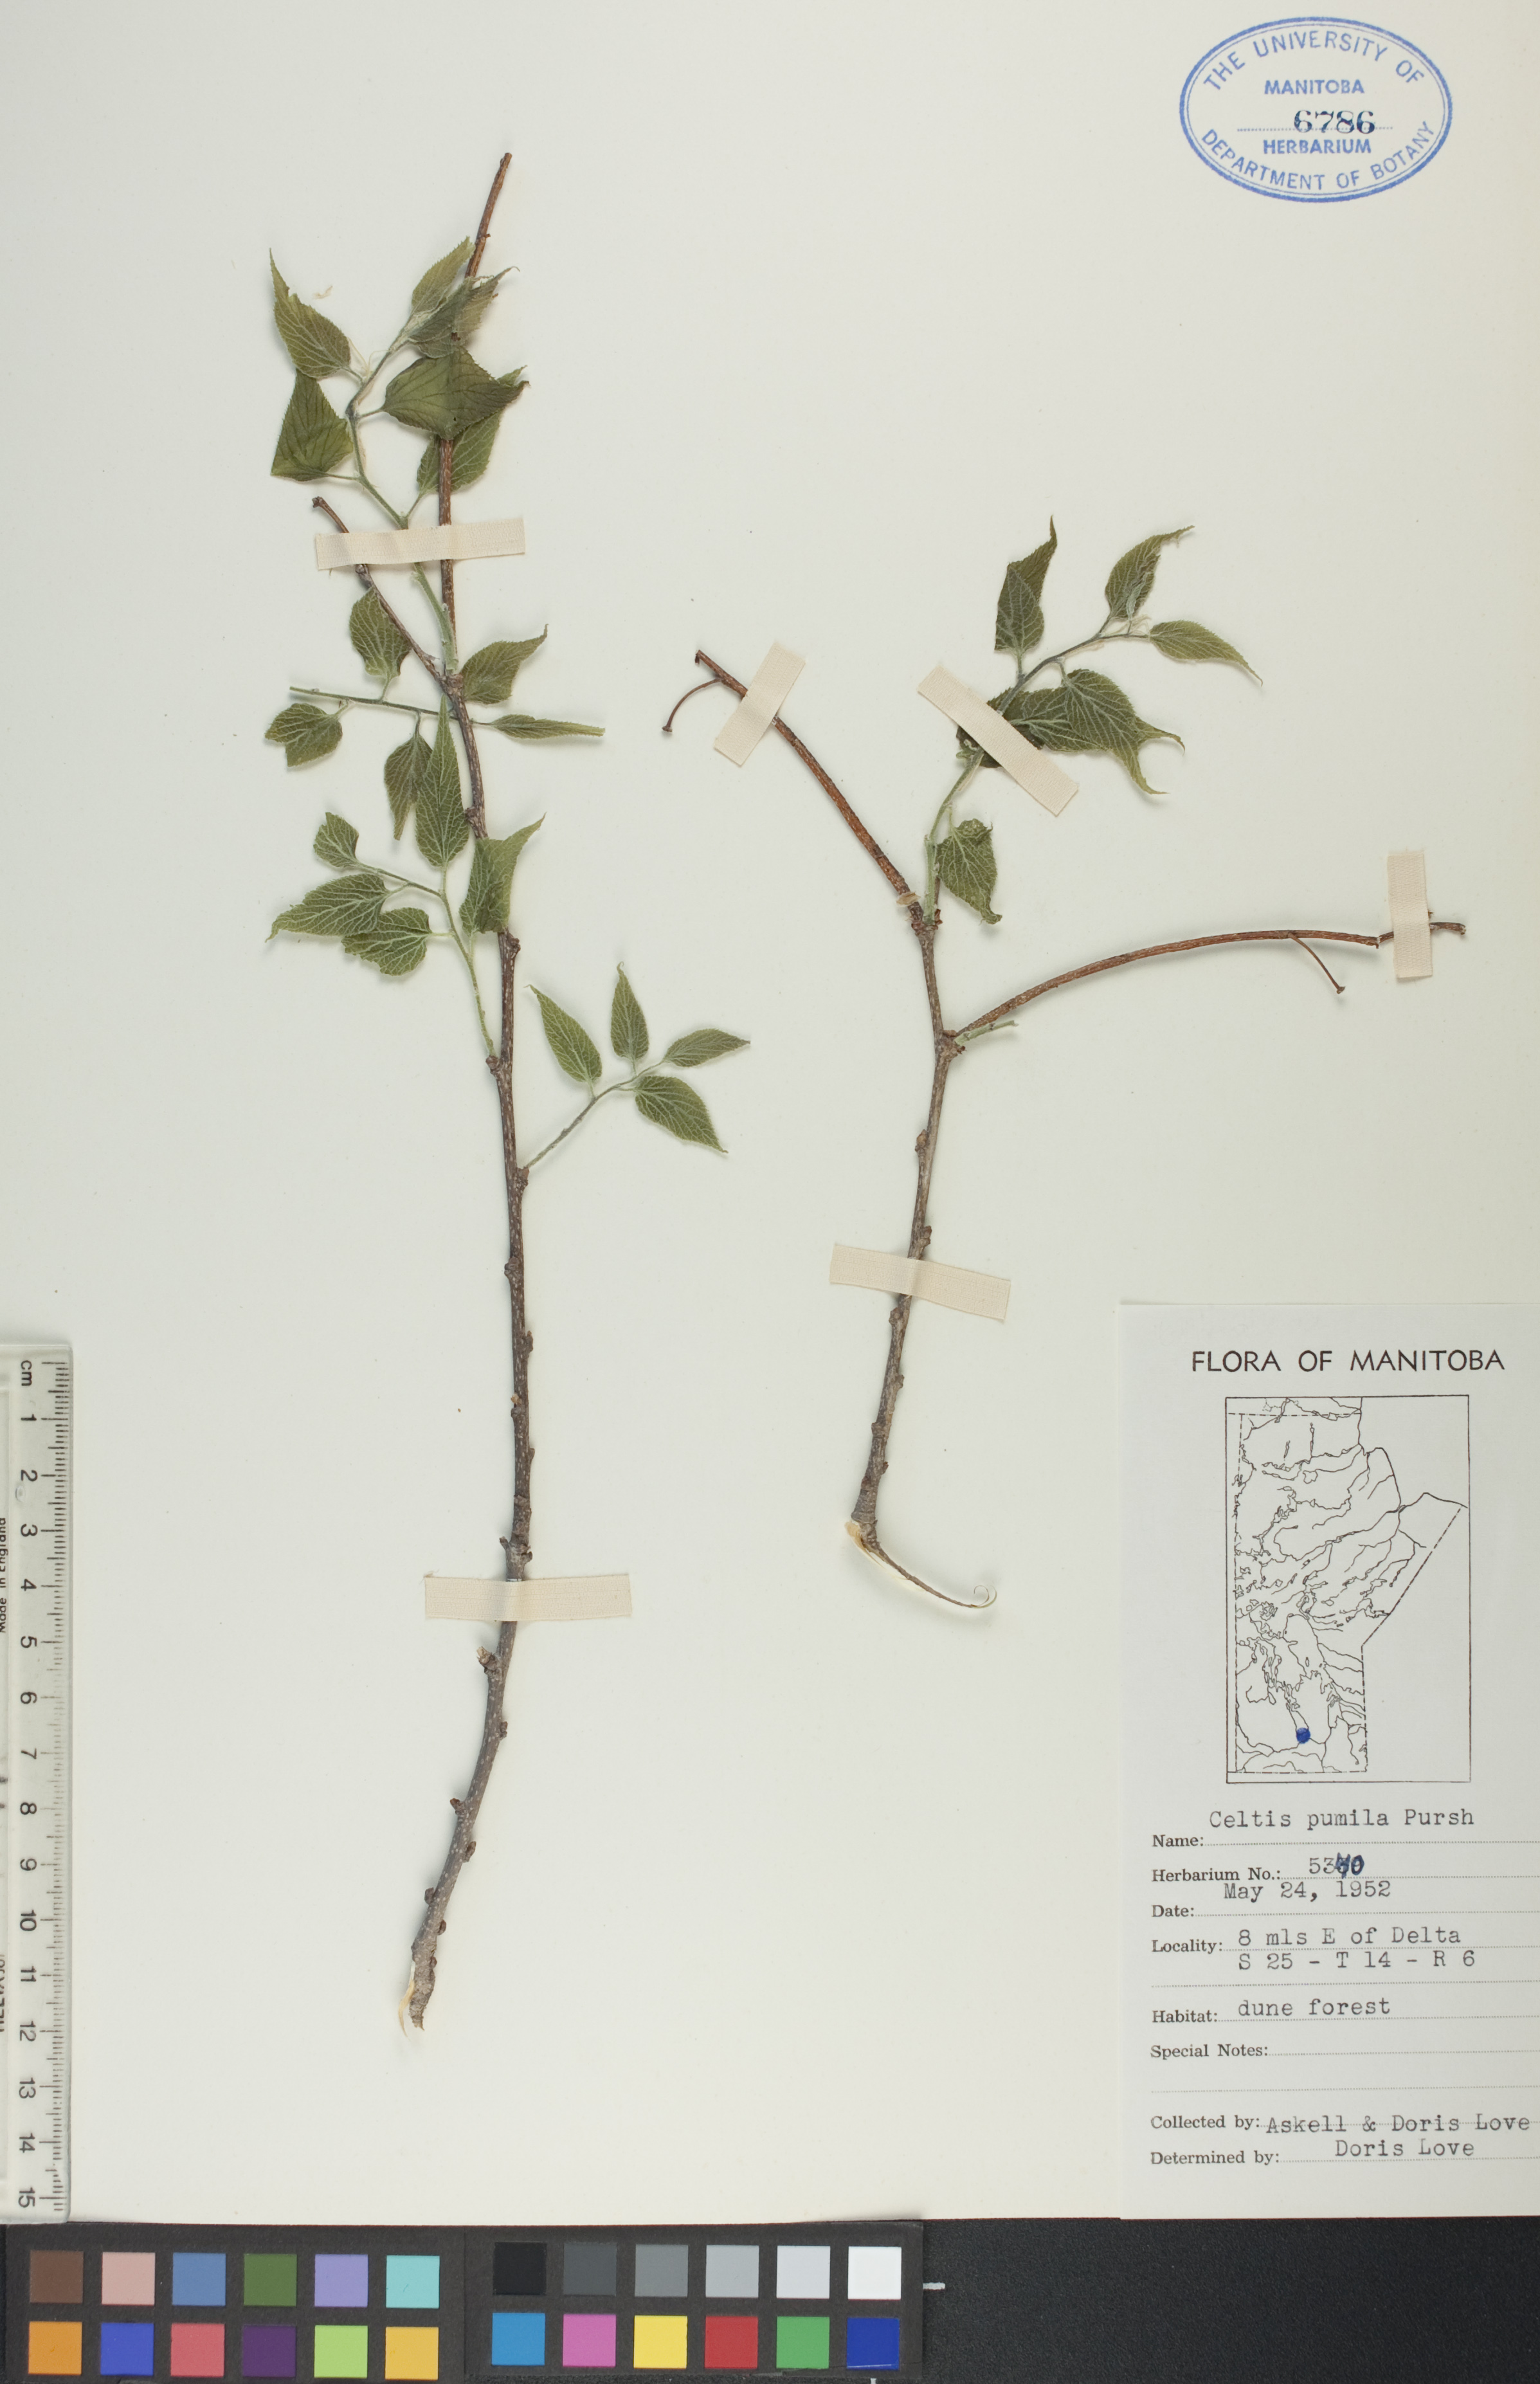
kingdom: Plantae
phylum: Tracheophyta
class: Magnoliopsida
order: Rosales
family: Cannabaceae
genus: Celtis
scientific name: Celtis occidentalis
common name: Common hackberry
